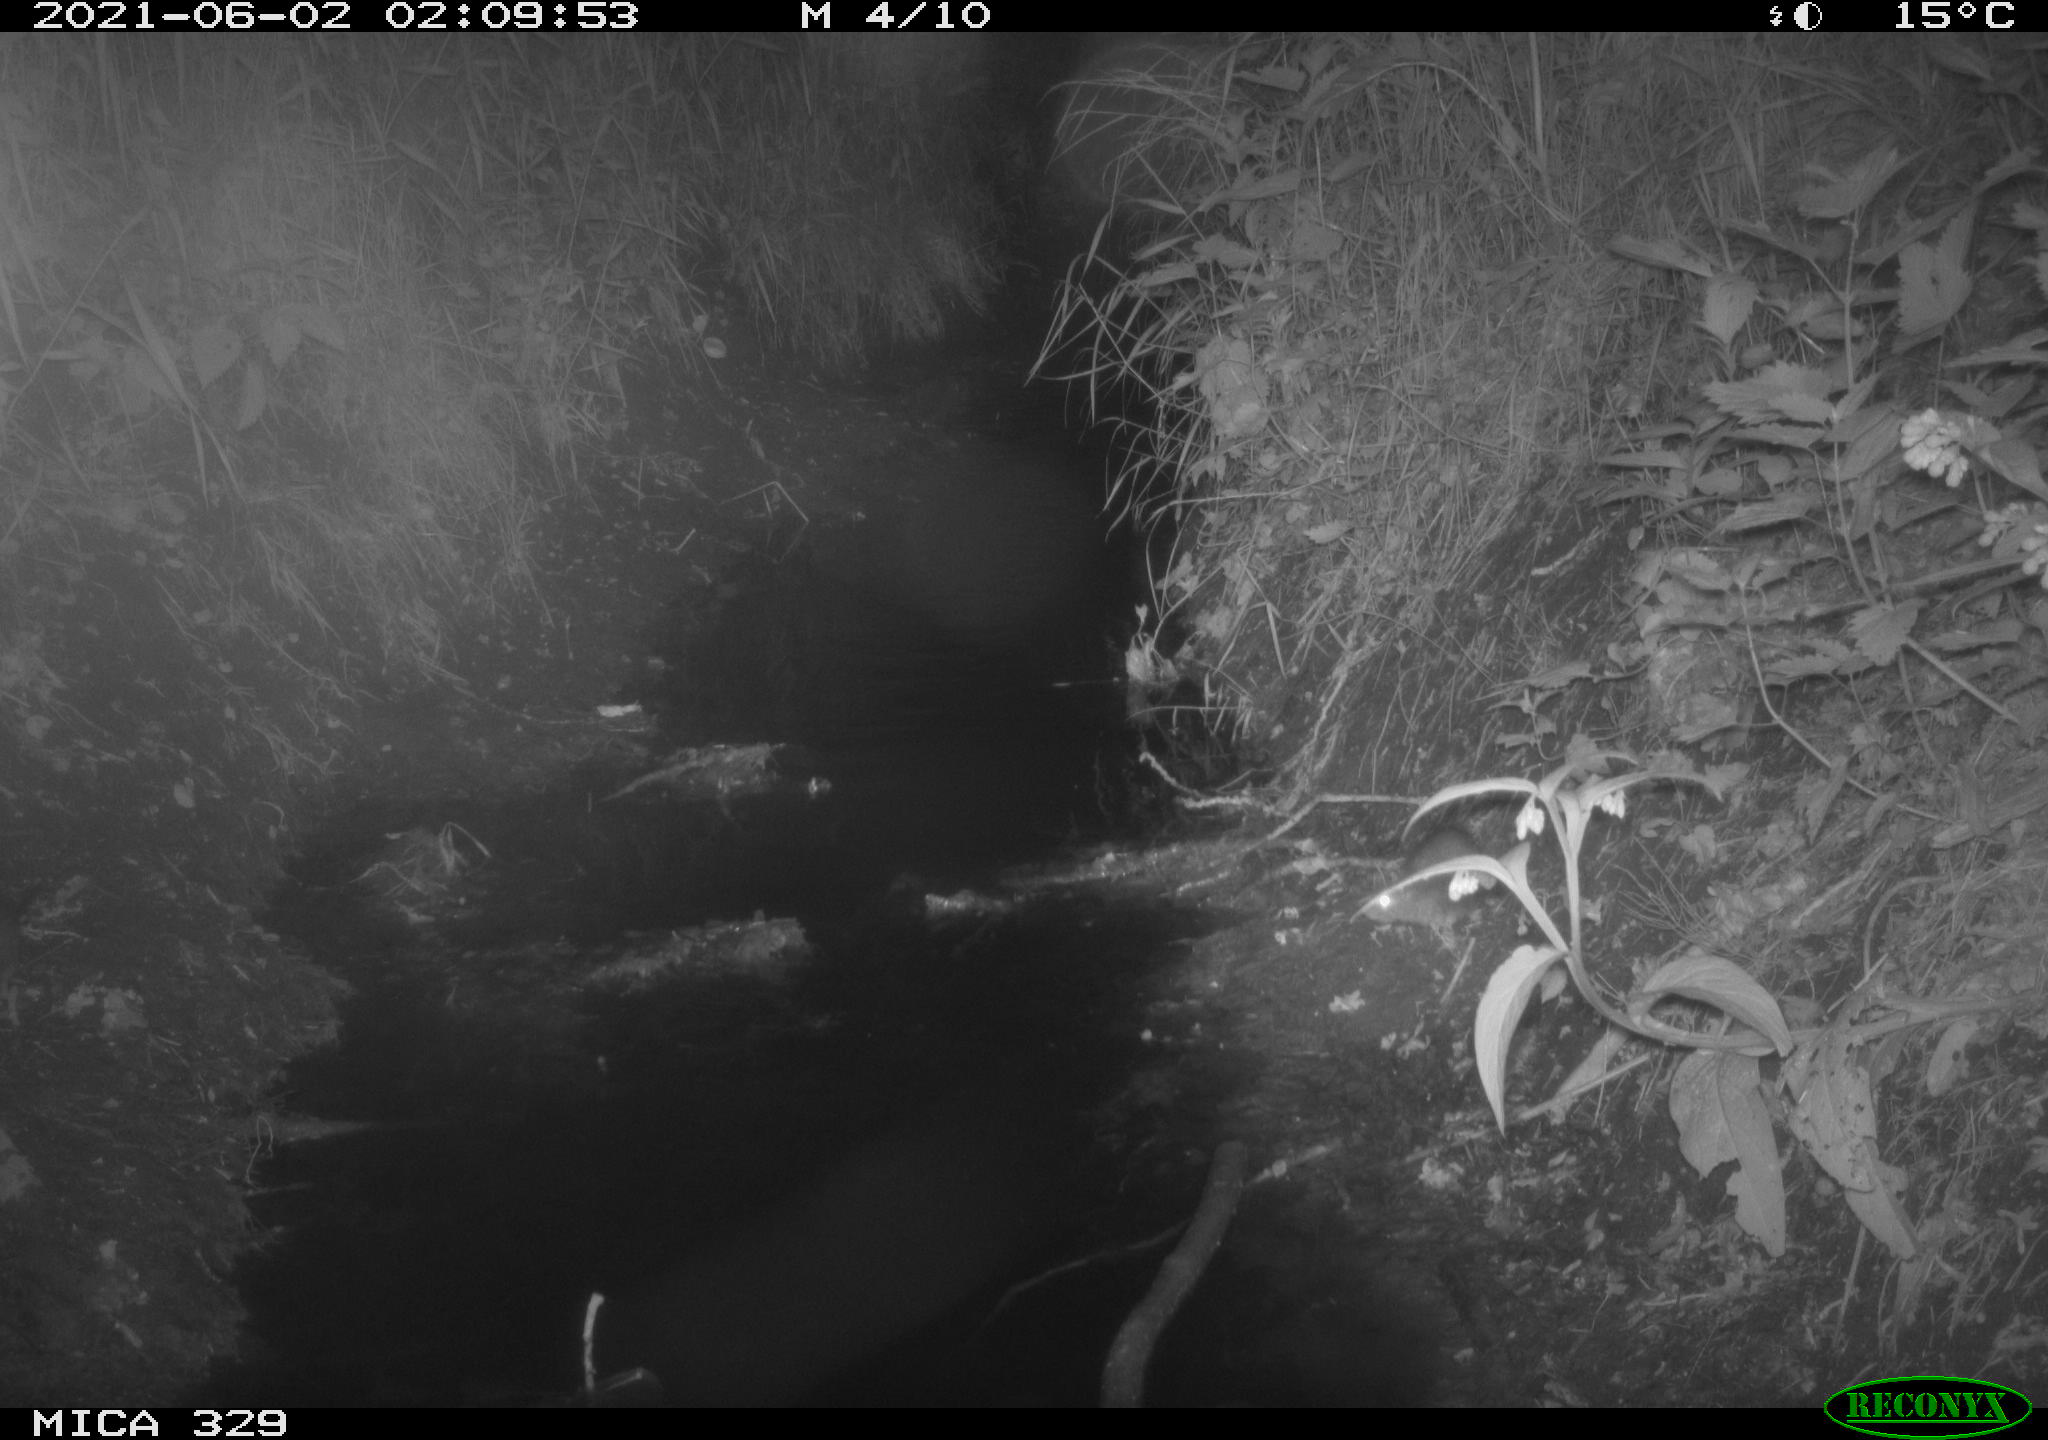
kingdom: Animalia
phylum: Chordata
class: Mammalia
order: Rodentia
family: Muridae
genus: Rattus
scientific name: Rattus norvegicus
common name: Brown rat
